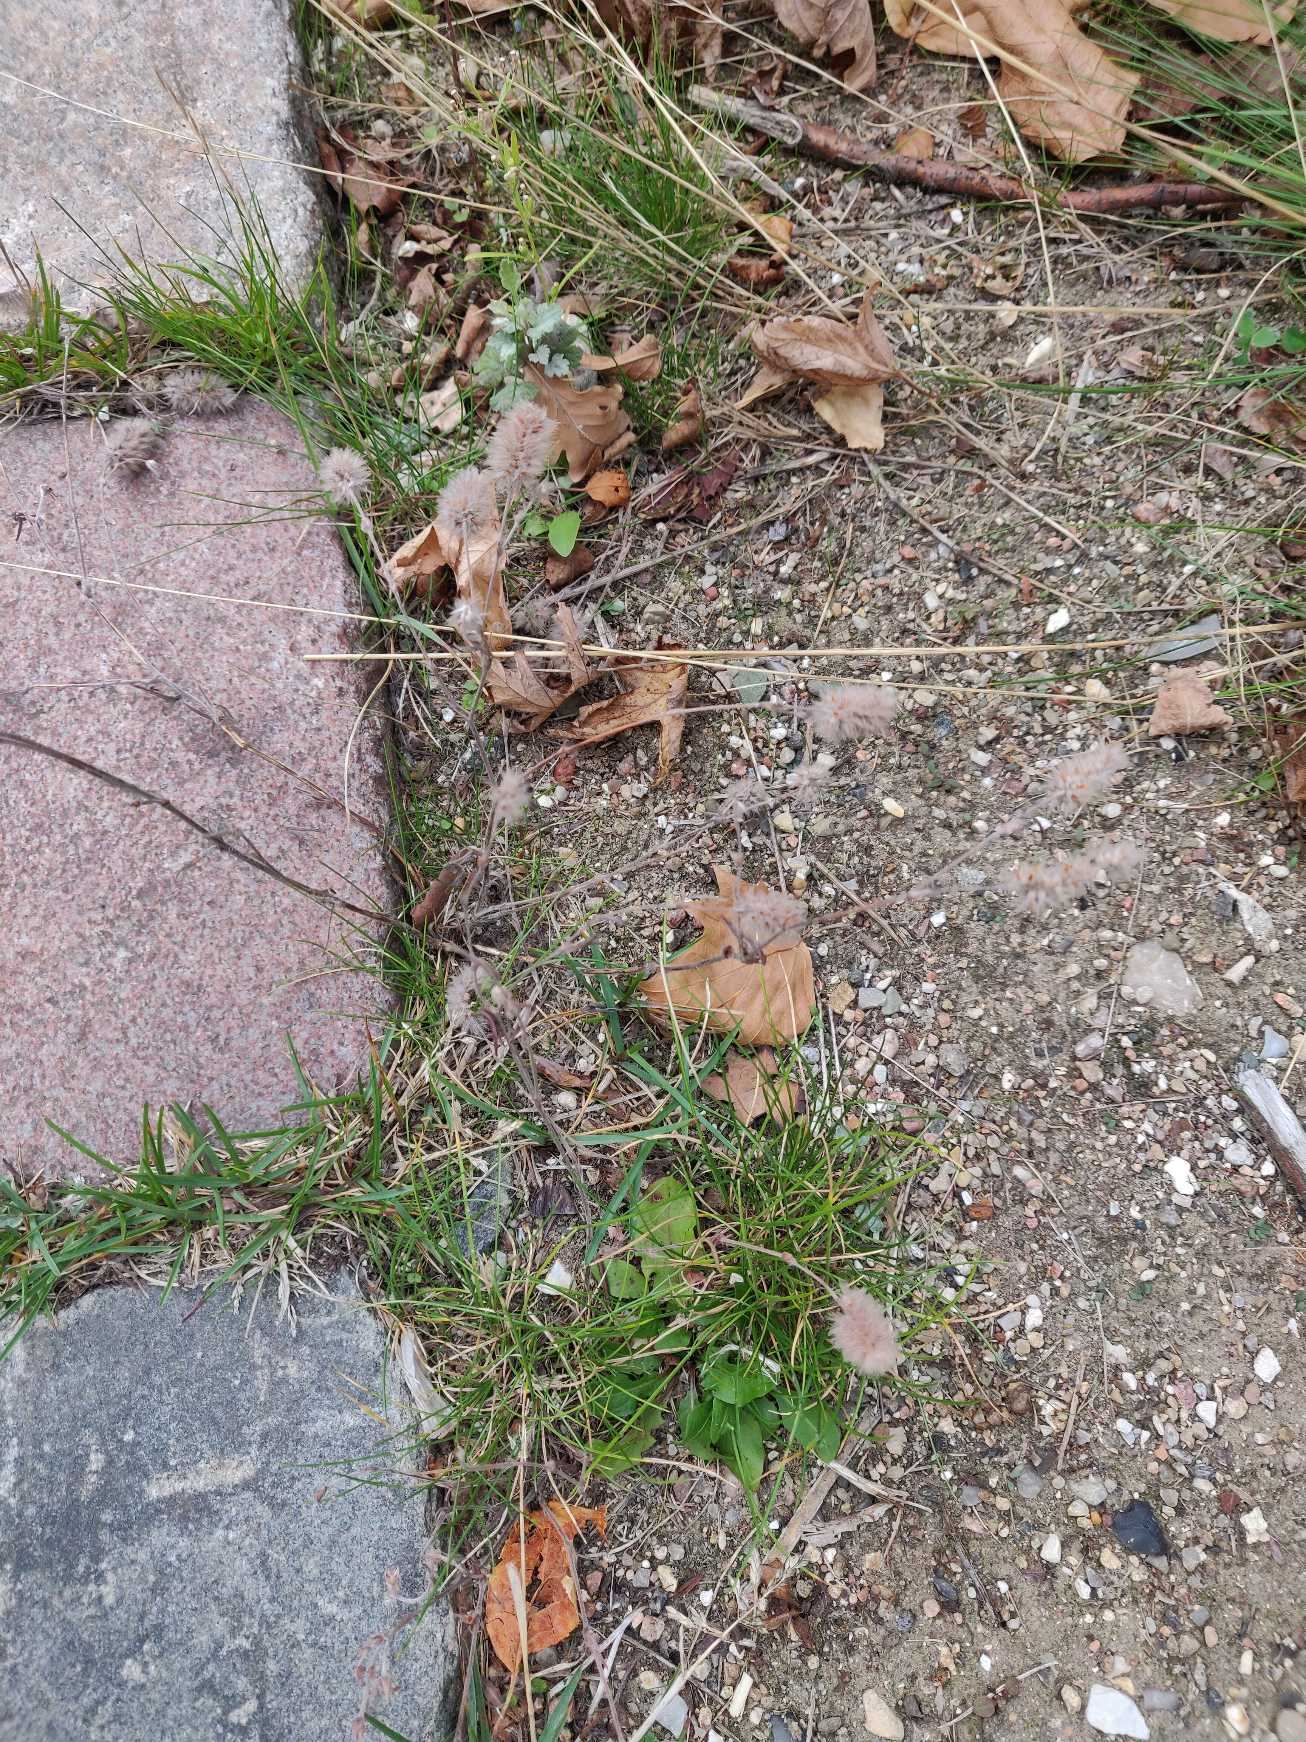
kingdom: Plantae
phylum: Tracheophyta
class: Magnoliopsida
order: Fabales
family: Fabaceae
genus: Trifolium
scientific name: Trifolium arvense
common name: Hare-kløver
